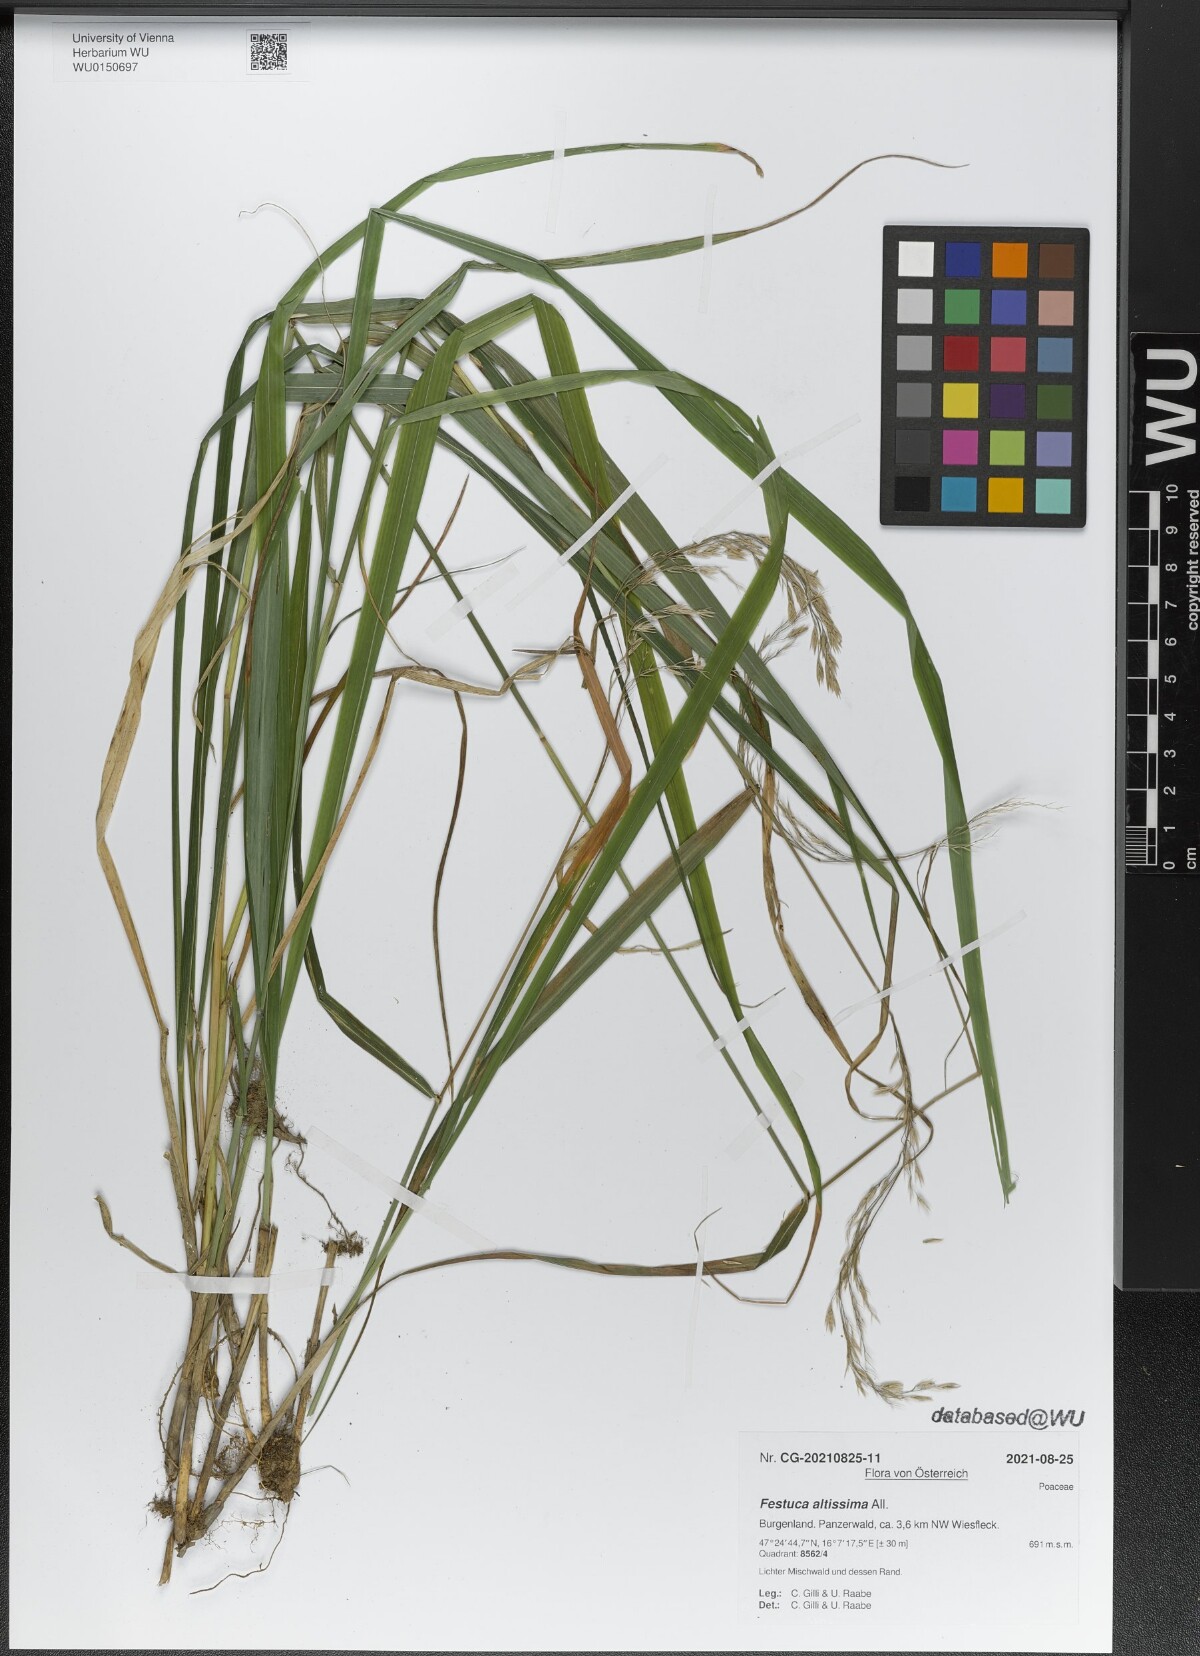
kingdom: Plantae
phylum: Tracheophyta
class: Liliopsida
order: Poales
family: Poaceae
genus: Festuca
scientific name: Festuca altissima
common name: Wood fescue
